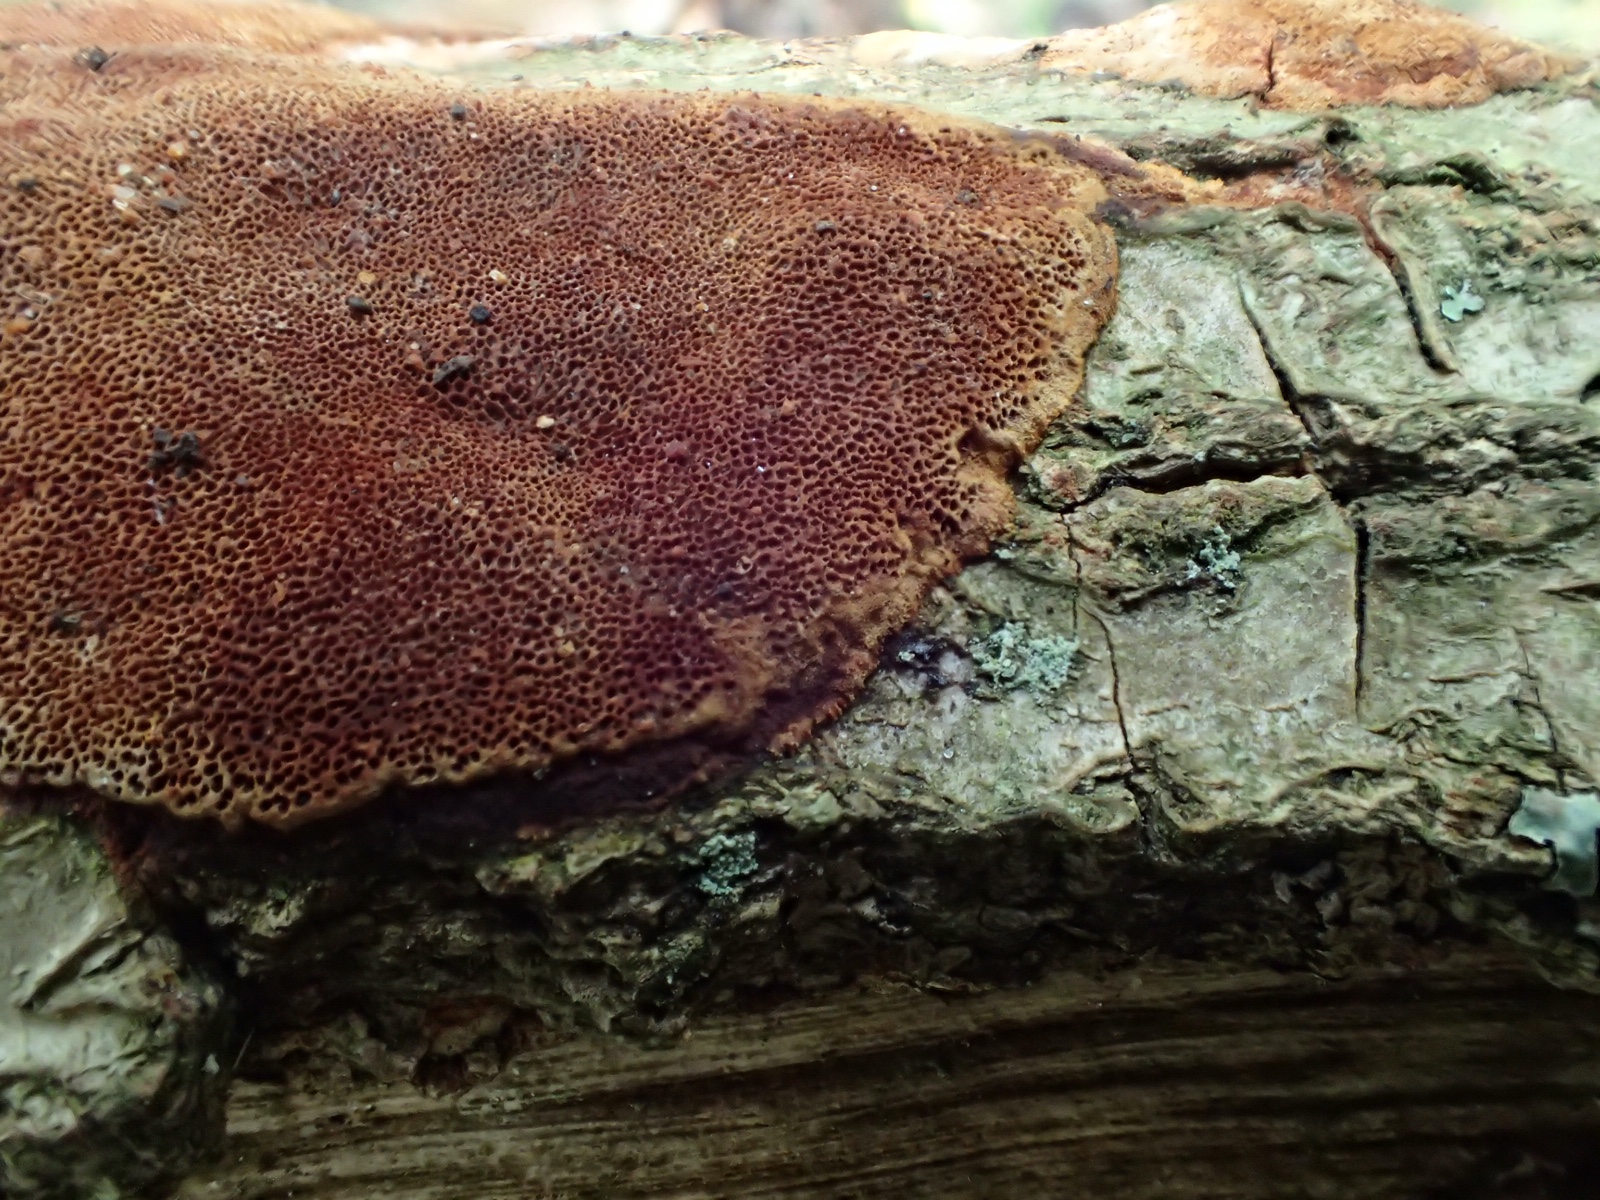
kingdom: Fungi
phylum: Basidiomycota
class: Agaricomycetes
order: Hymenochaetales
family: Hymenochaetaceae
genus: Fuscoporia
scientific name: Fuscoporia ferrea
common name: skorpe-ildporesvamp
